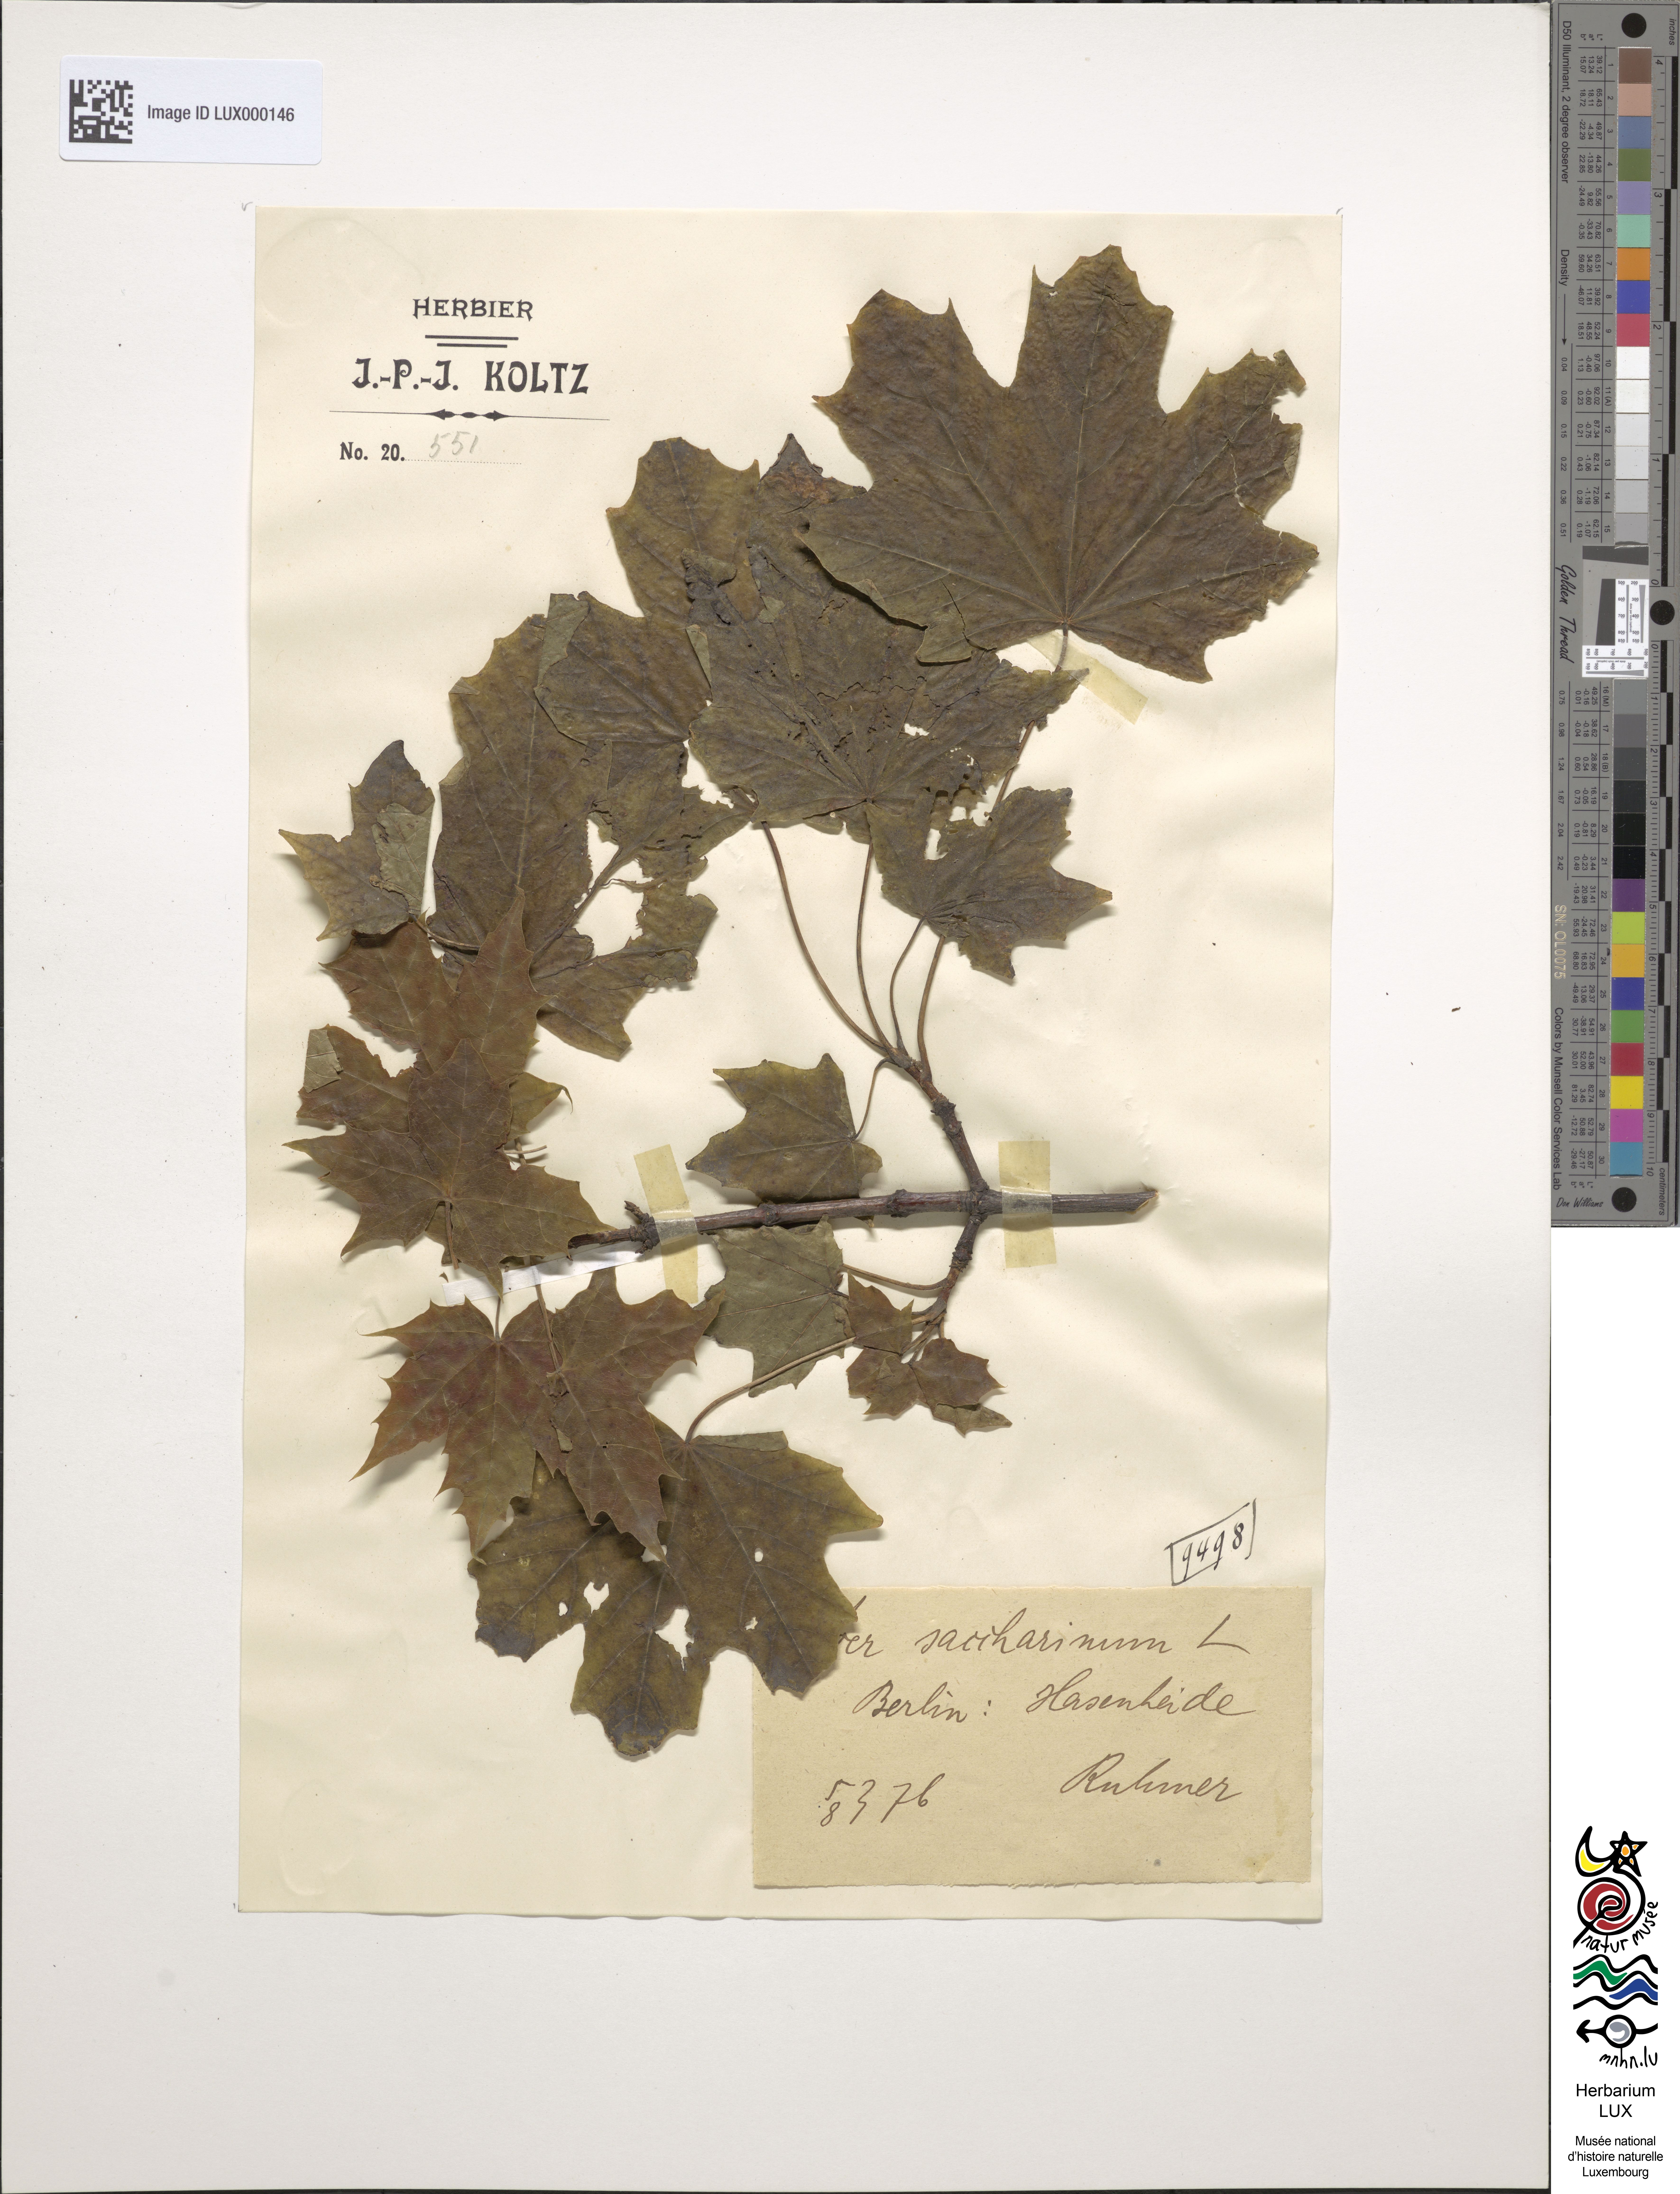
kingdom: Plantae
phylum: Tracheophyta
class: Magnoliopsida
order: Sapindales
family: Sapindaceae
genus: Acer
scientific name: Acer saccharinum
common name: Silver maple
